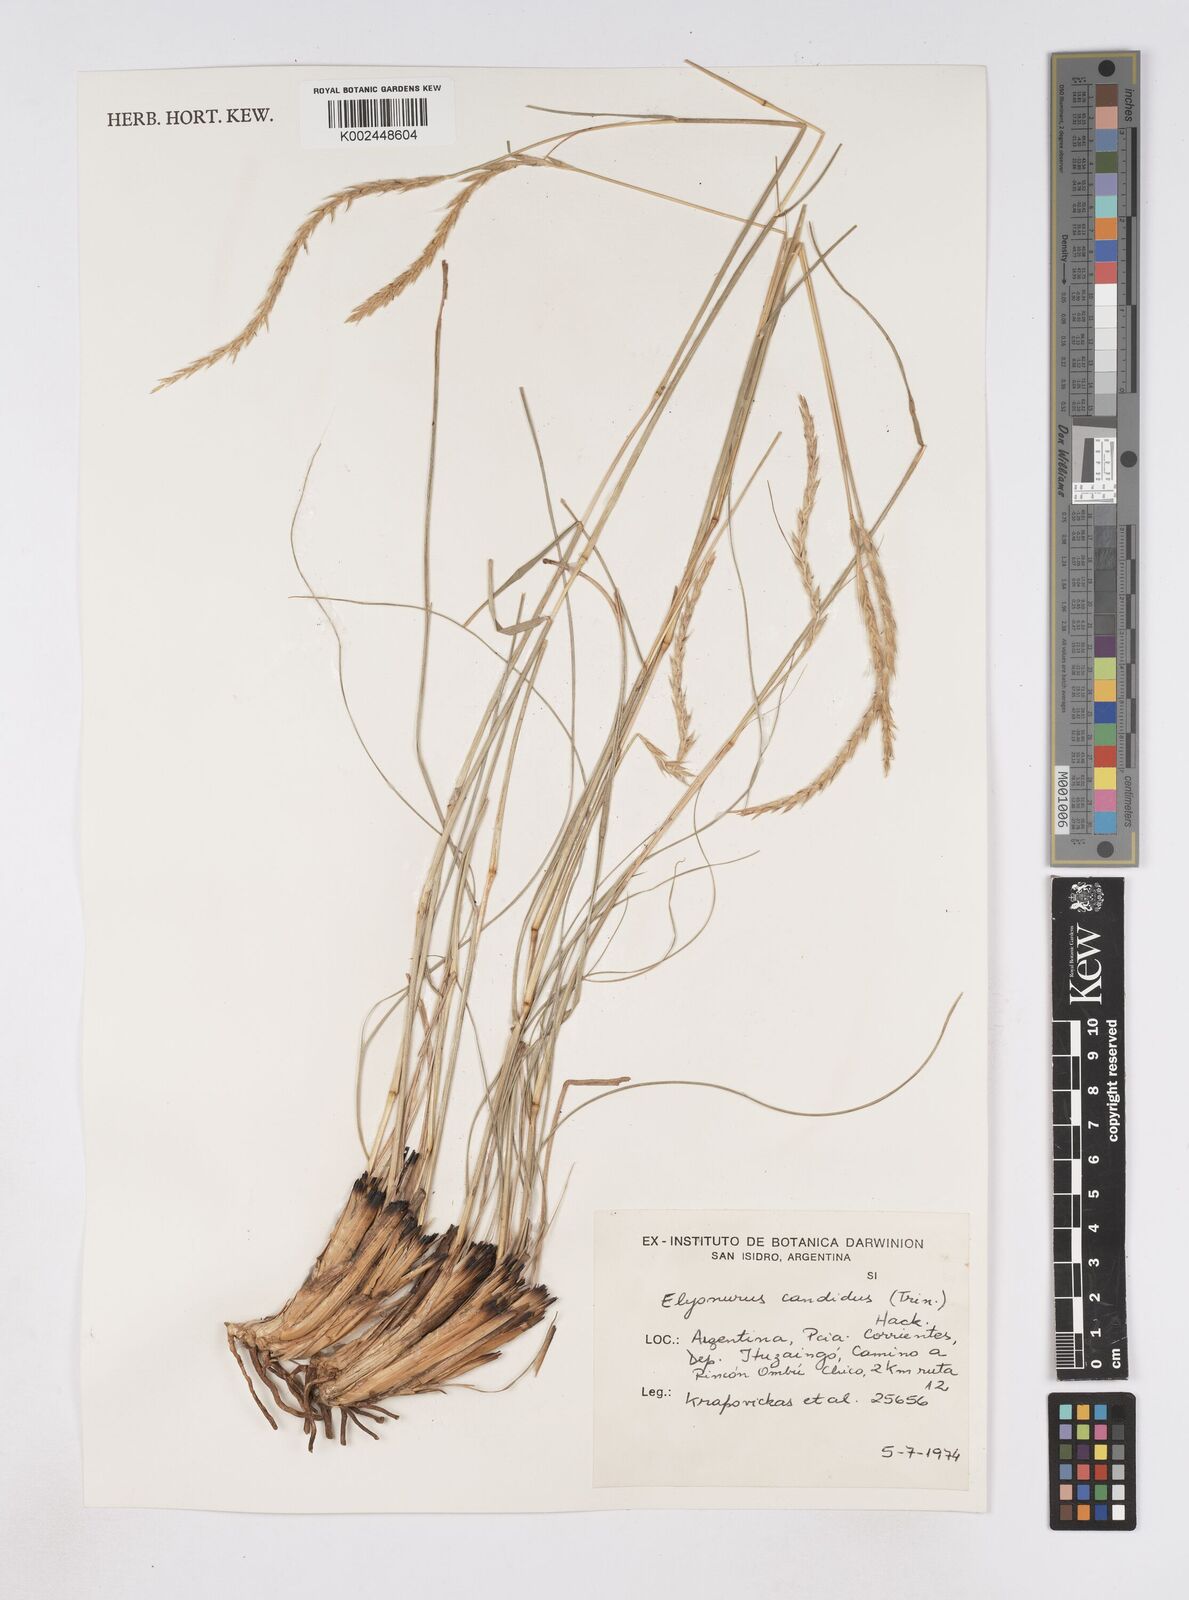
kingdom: Plantae
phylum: Tracheophyta
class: Liliopsida
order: Poales
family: Poaceae
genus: Elionurus
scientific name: Elionurus muticus
